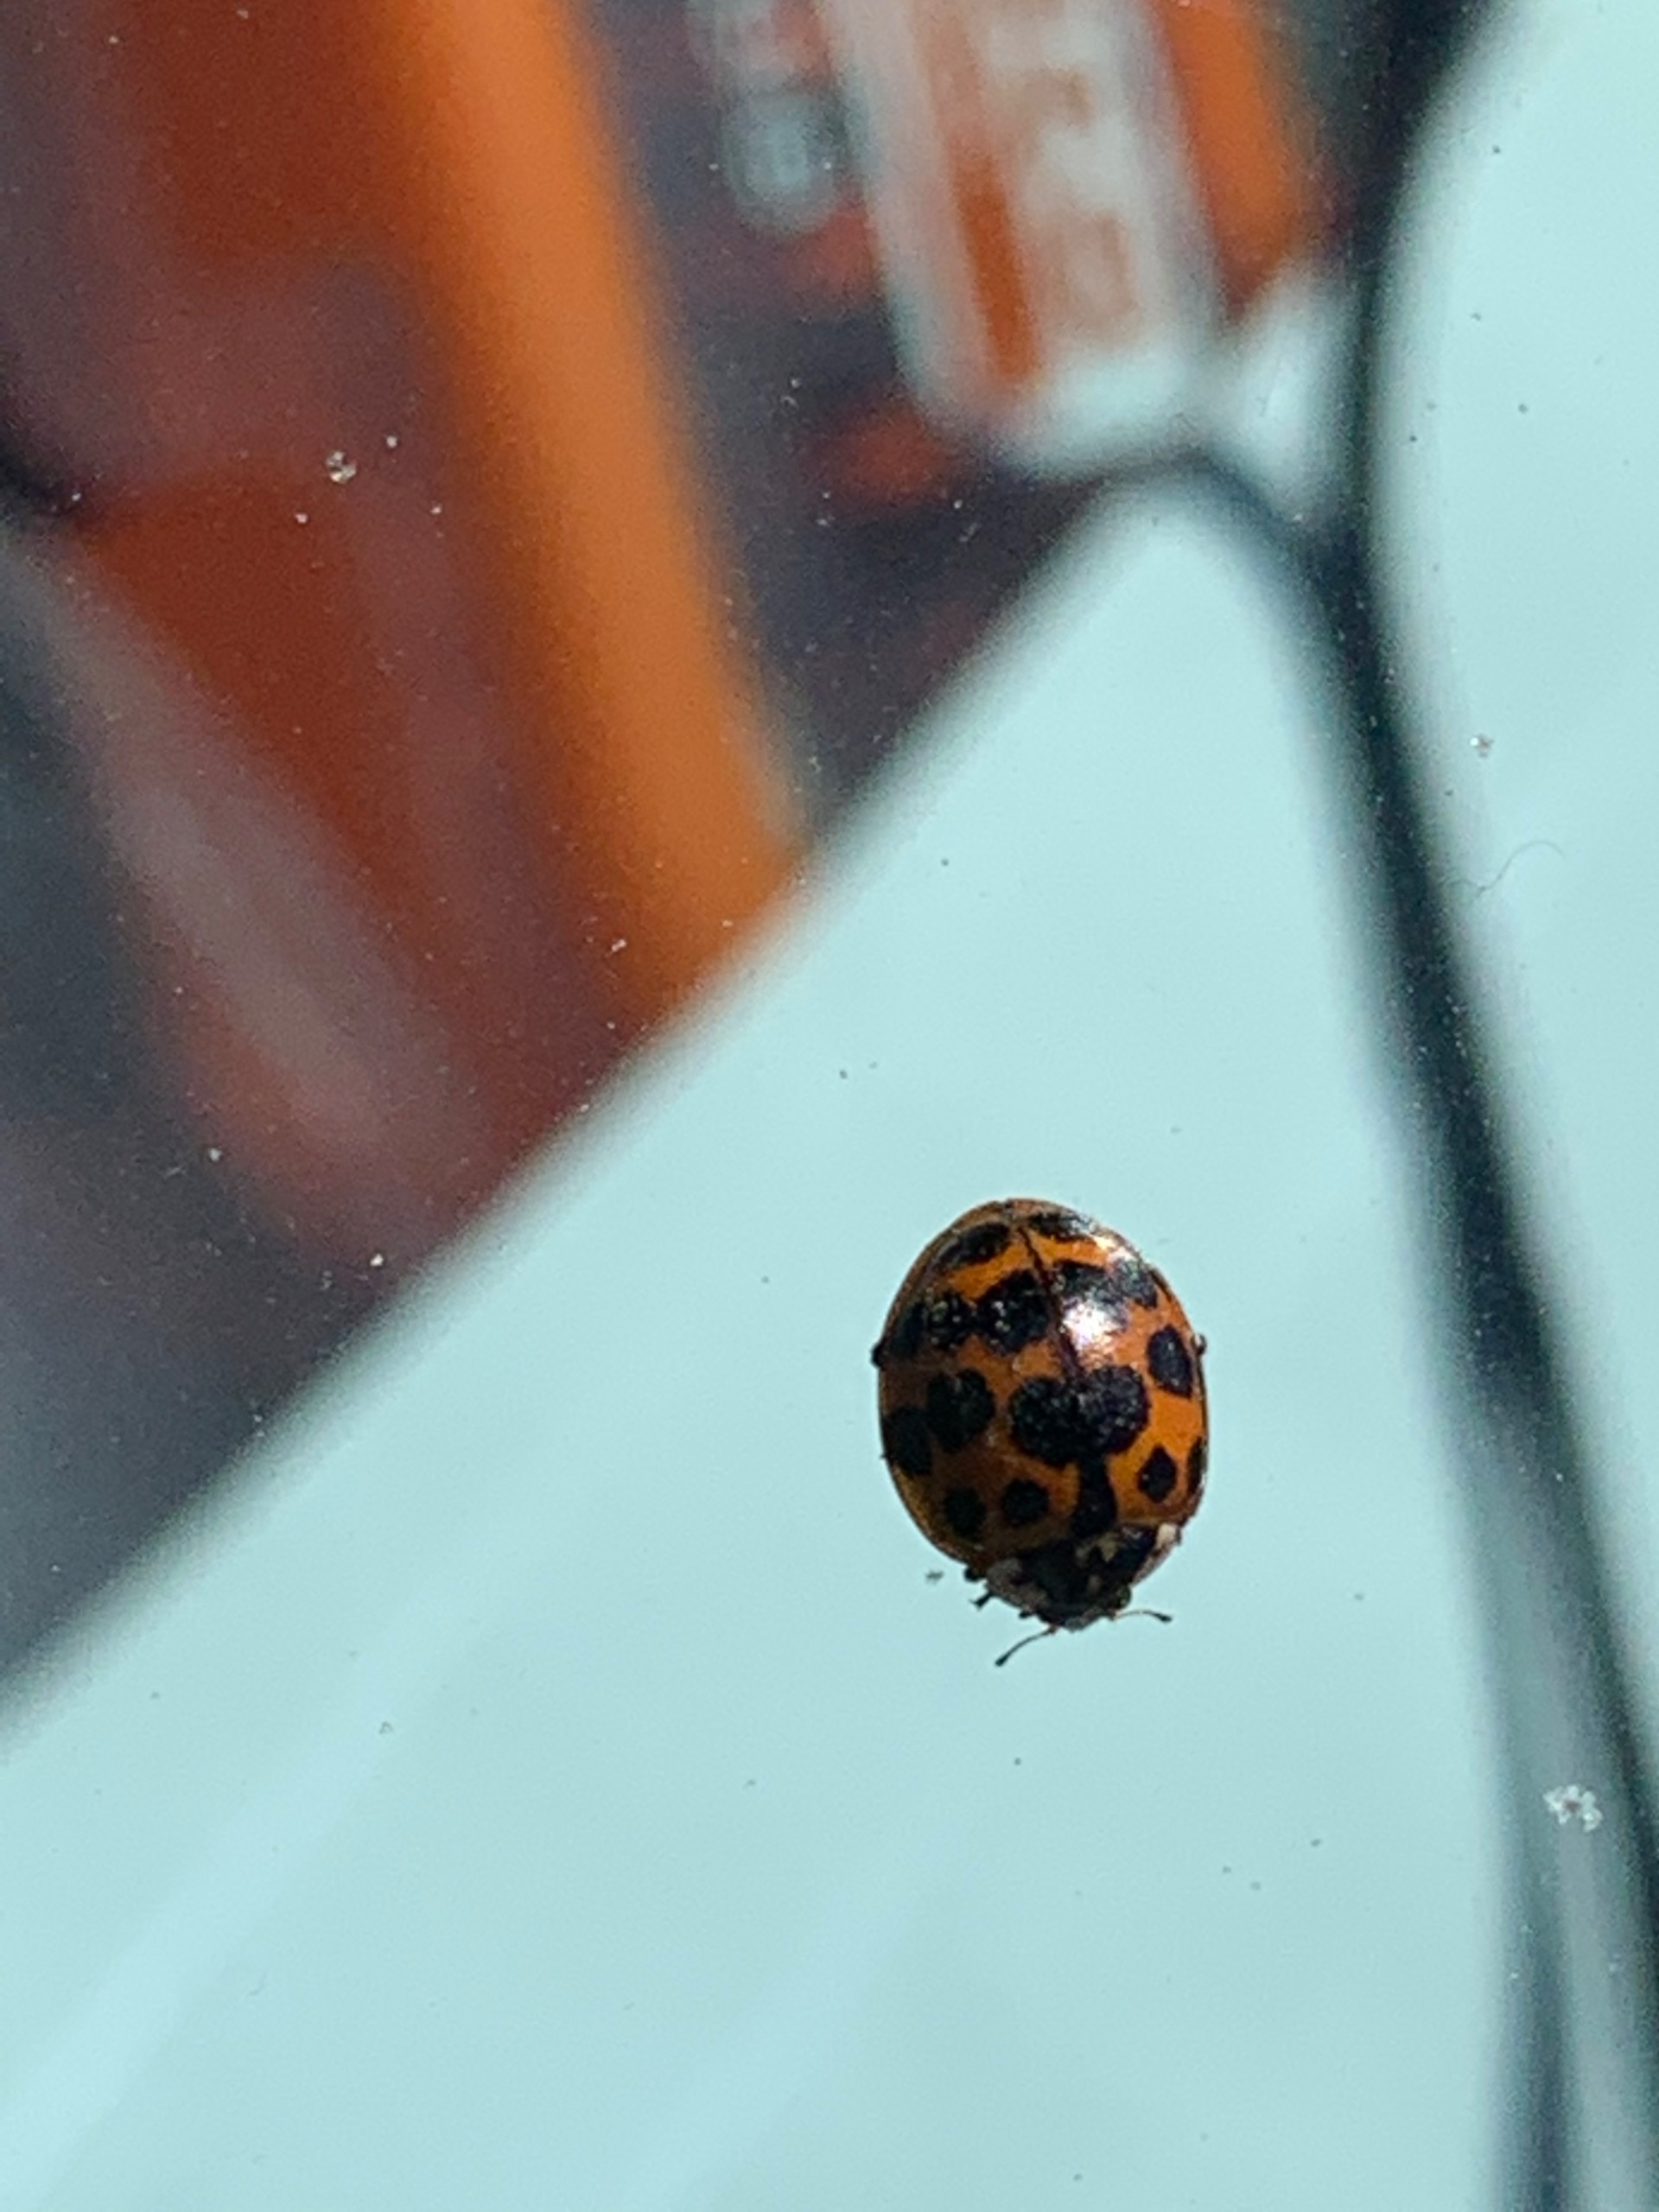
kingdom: Animalia
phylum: Arthropoda
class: Insecta
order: Coleoptera
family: Coccinellidae
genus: Harmonia
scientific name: Harmonia axyridis
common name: Harlekinmariehøne
